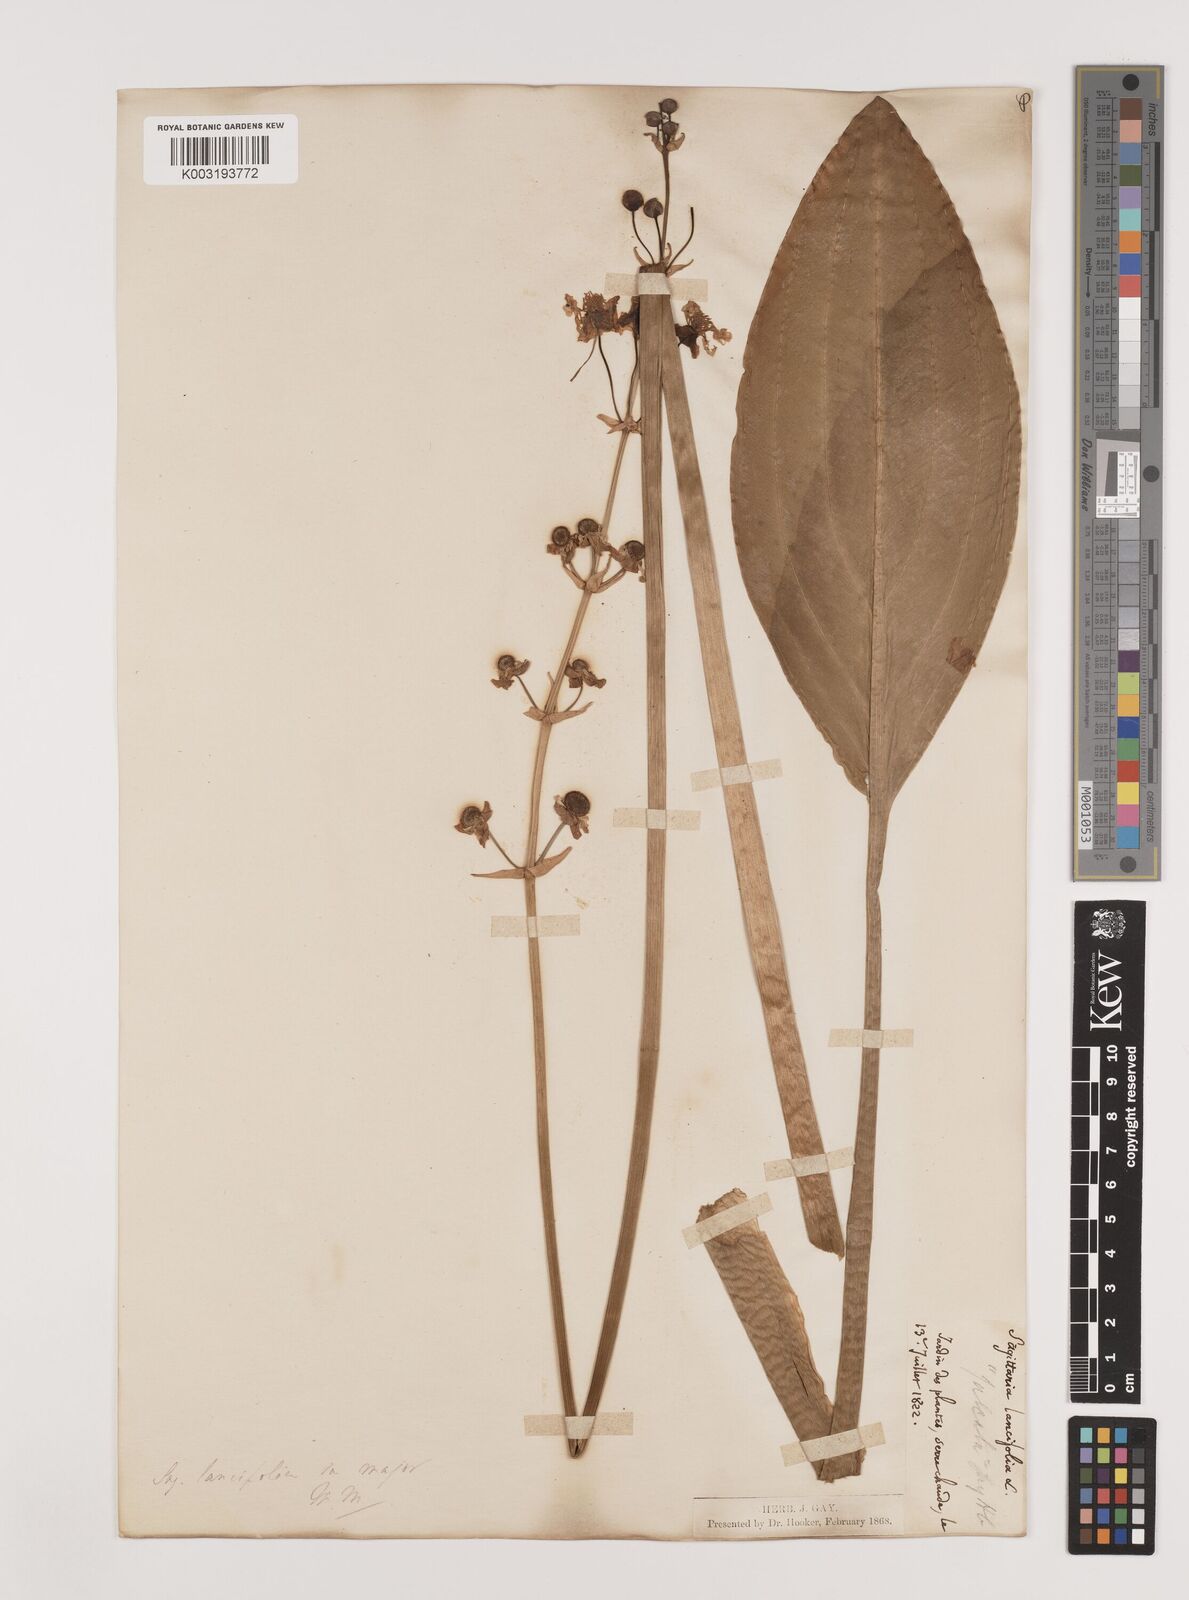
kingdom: Plantae
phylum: Tracheophyta
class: Liliopsida
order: Alismatales
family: Alismataceae
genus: Sagittaria
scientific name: Sagittaria lancifolia
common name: Lance-leaf arrowhead
